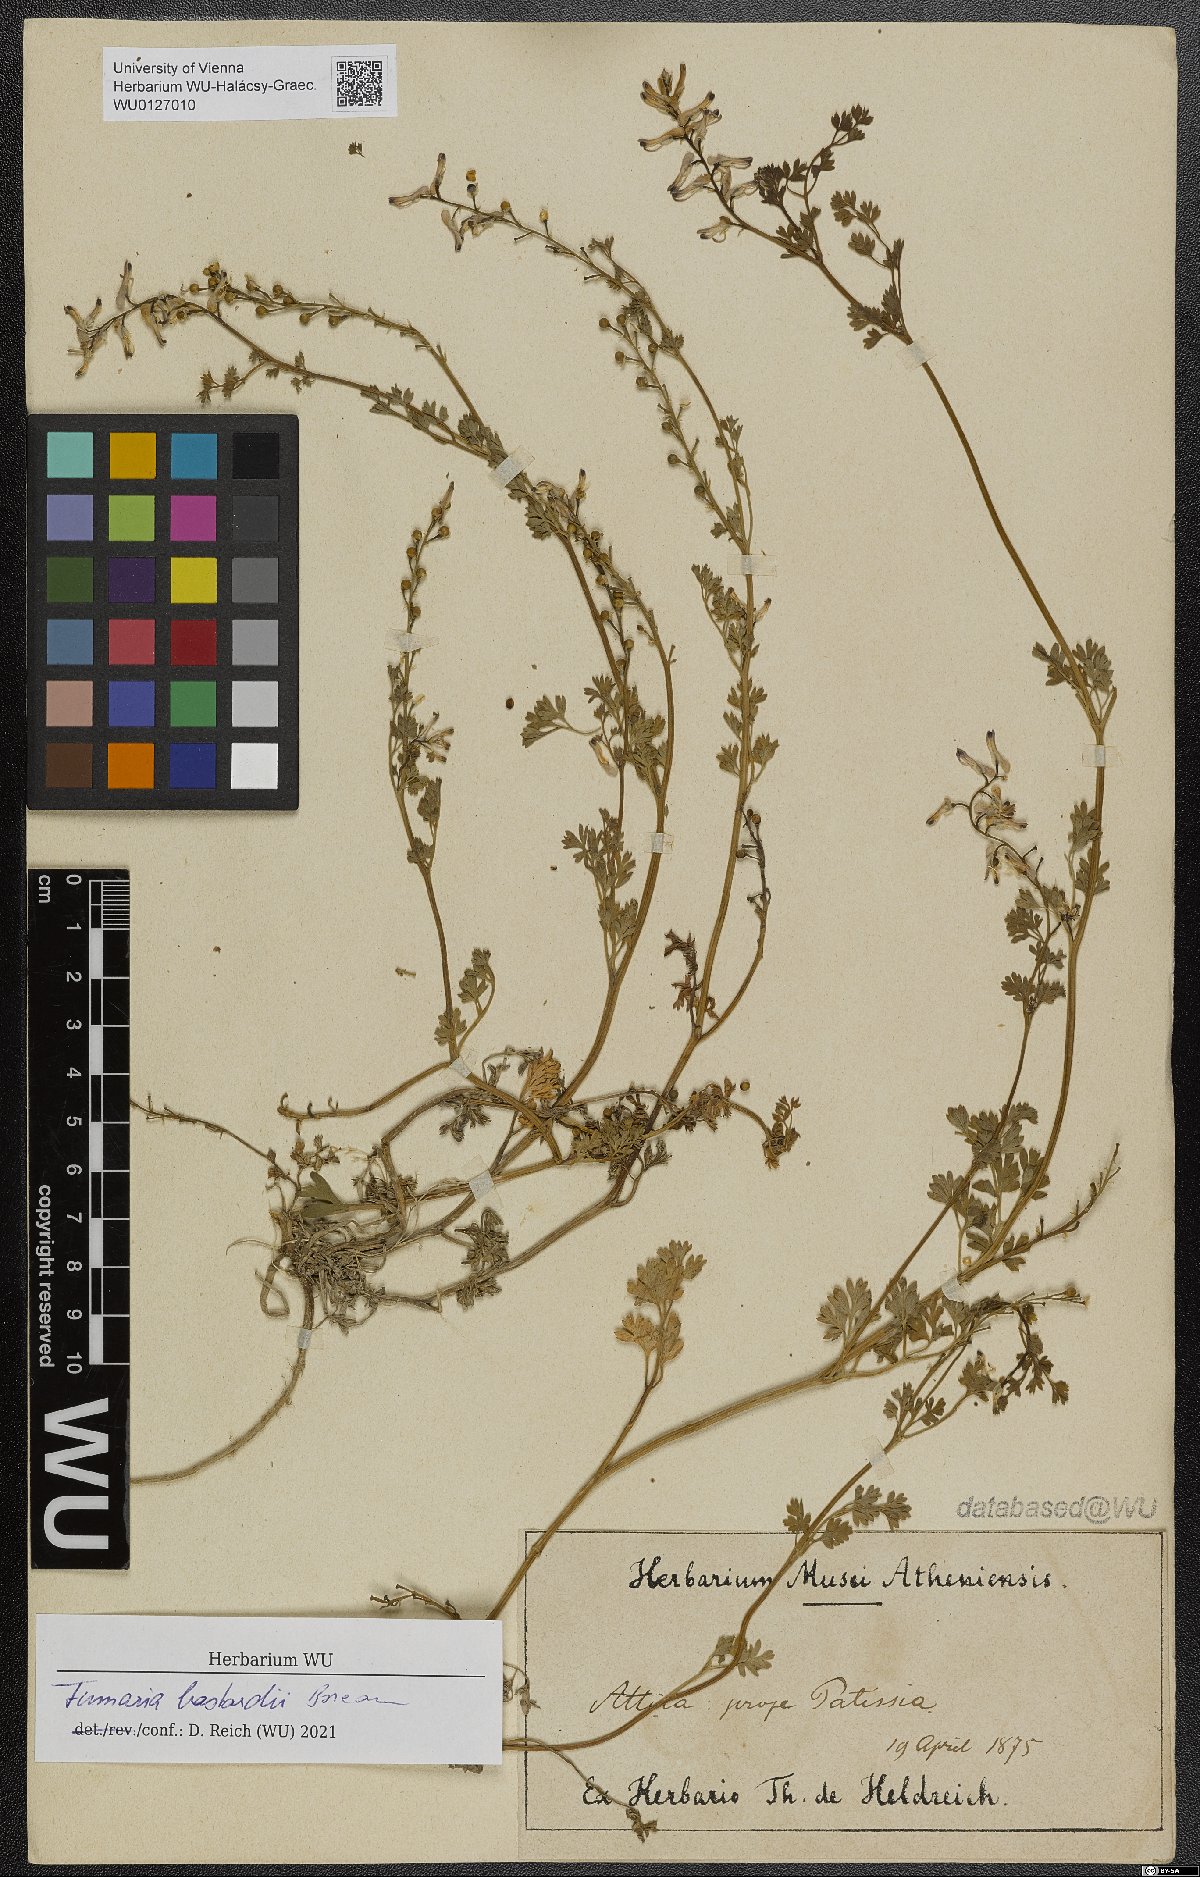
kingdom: Plantae
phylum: Tracheophyta
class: Magnoliopsida
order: Ranunculales
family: Papaveraceae
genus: Fumaria
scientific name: Fumaria bastardii
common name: Tall ramping-fumitory
